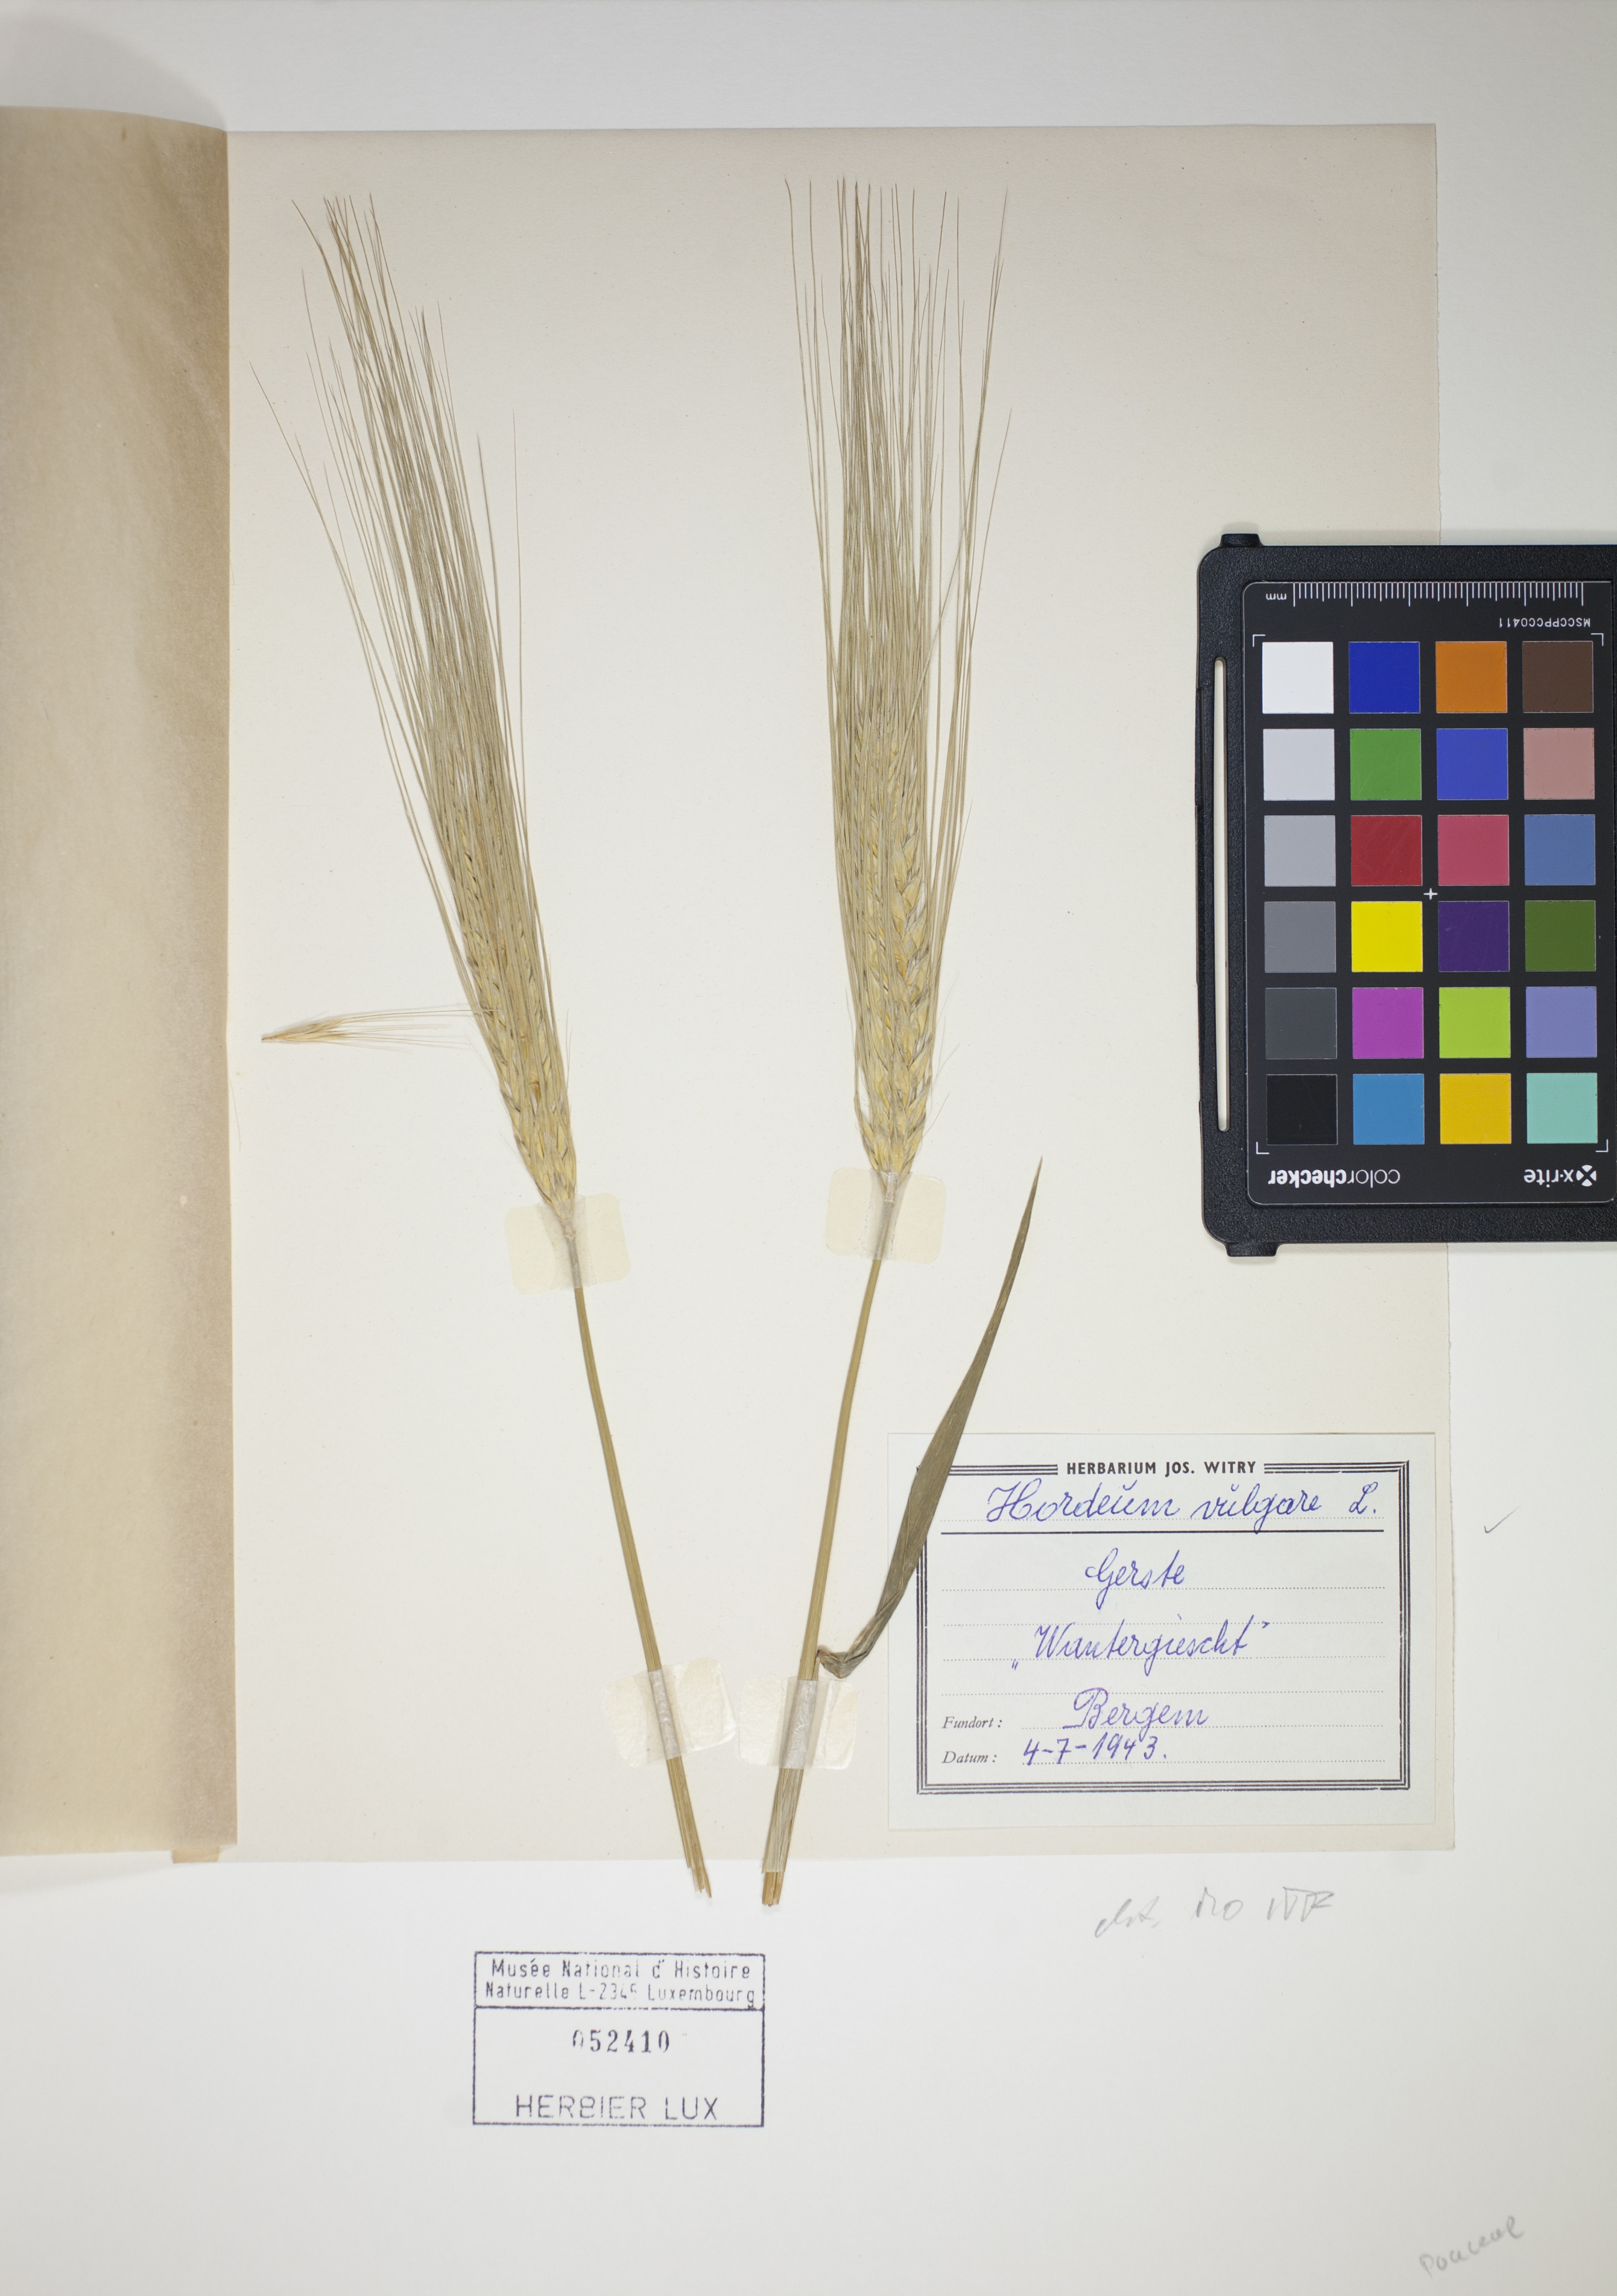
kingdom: Plantae
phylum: Tracheophyta
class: Liliopsida
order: Poales
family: Poaceae
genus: Hordeum
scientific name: Hordeum vulgare
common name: Common barley
